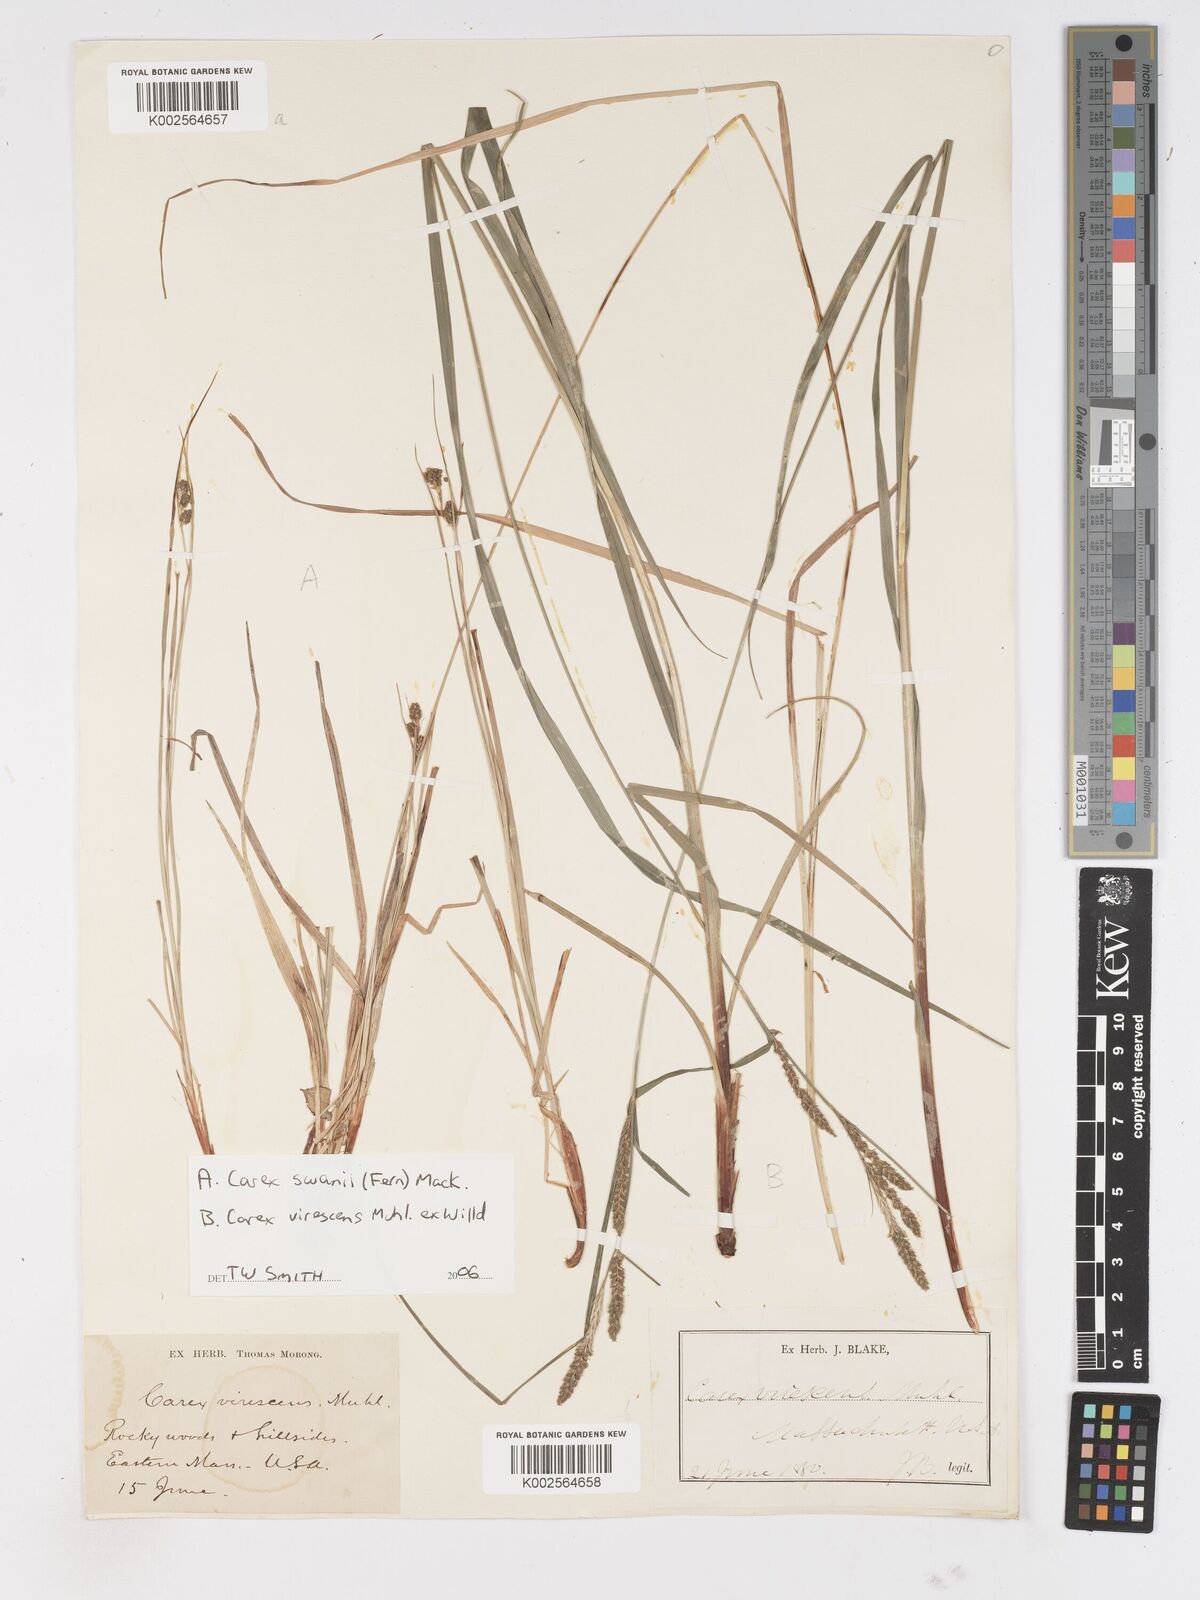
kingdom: Plantae
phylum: Tracheophyta
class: Liliopsida
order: Poales
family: Cyperaceae
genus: Carex
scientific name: Carex
